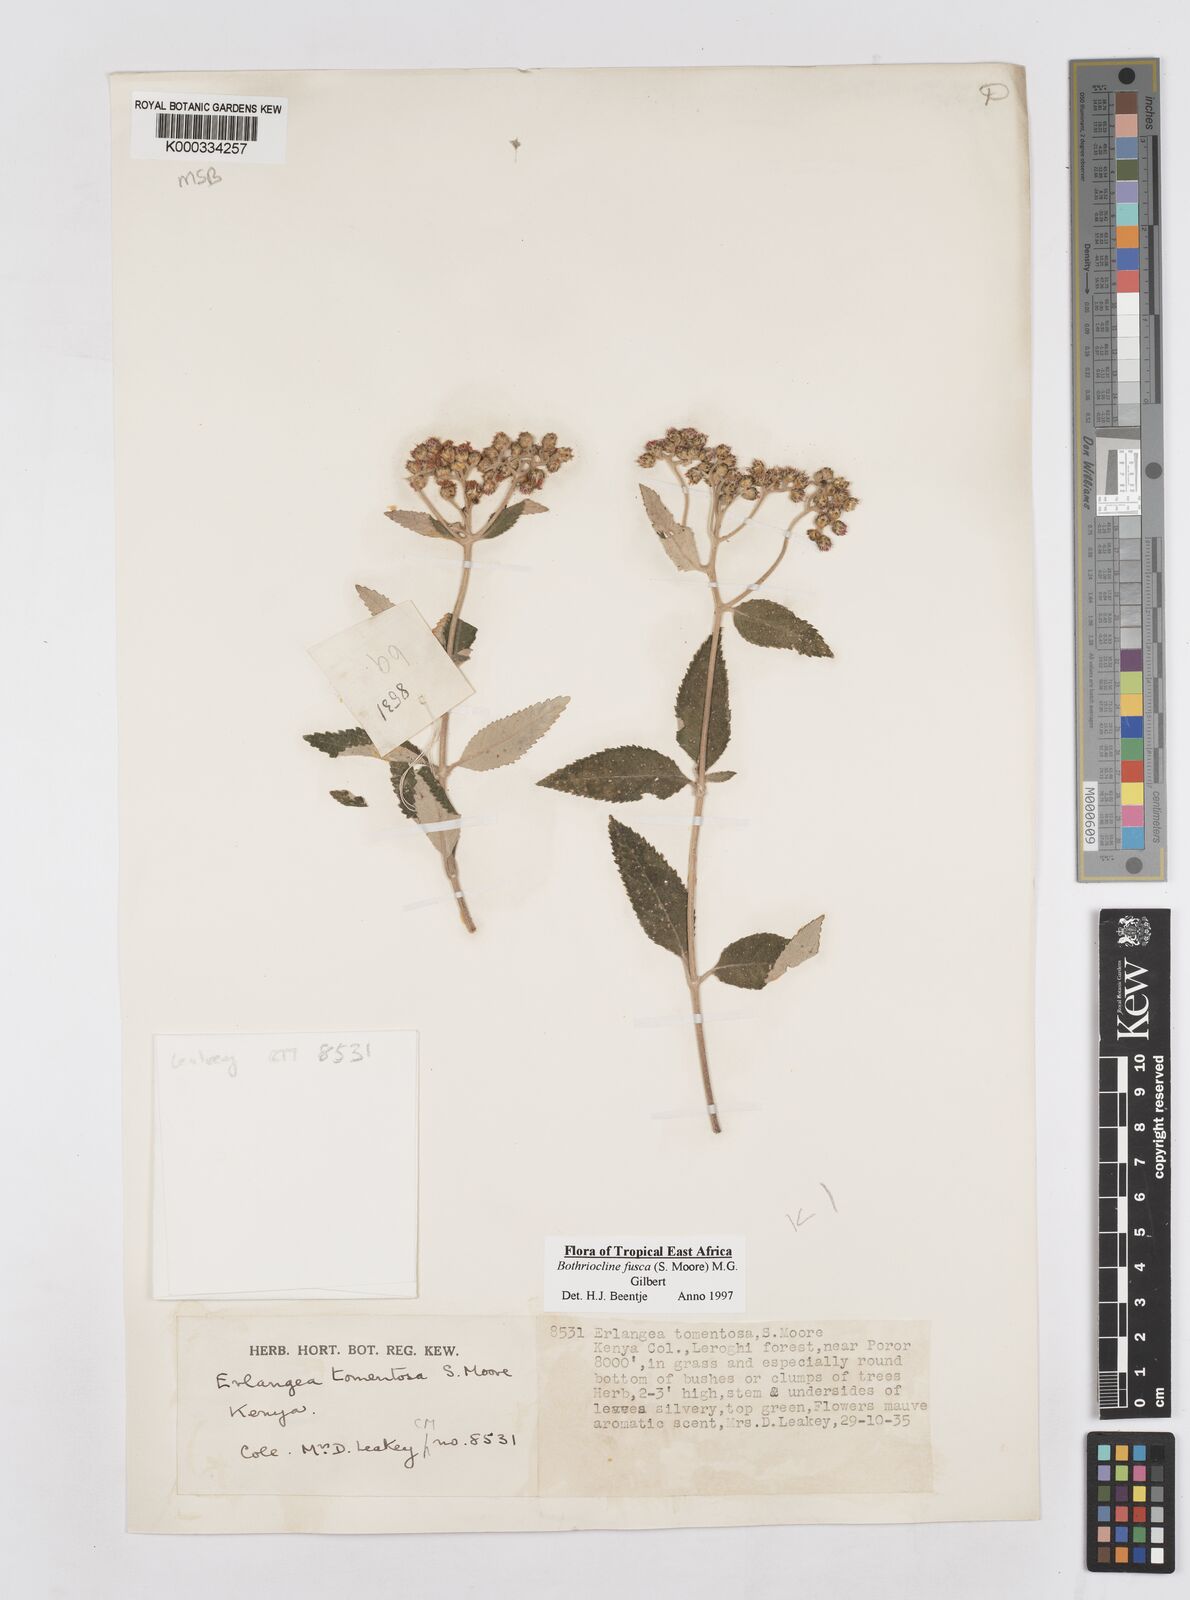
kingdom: Plantae
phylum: Tracheophyta
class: Magnoliopsida
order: Asterales
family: Asteraceae
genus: Bothriocline
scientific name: Bothriocline fusca
